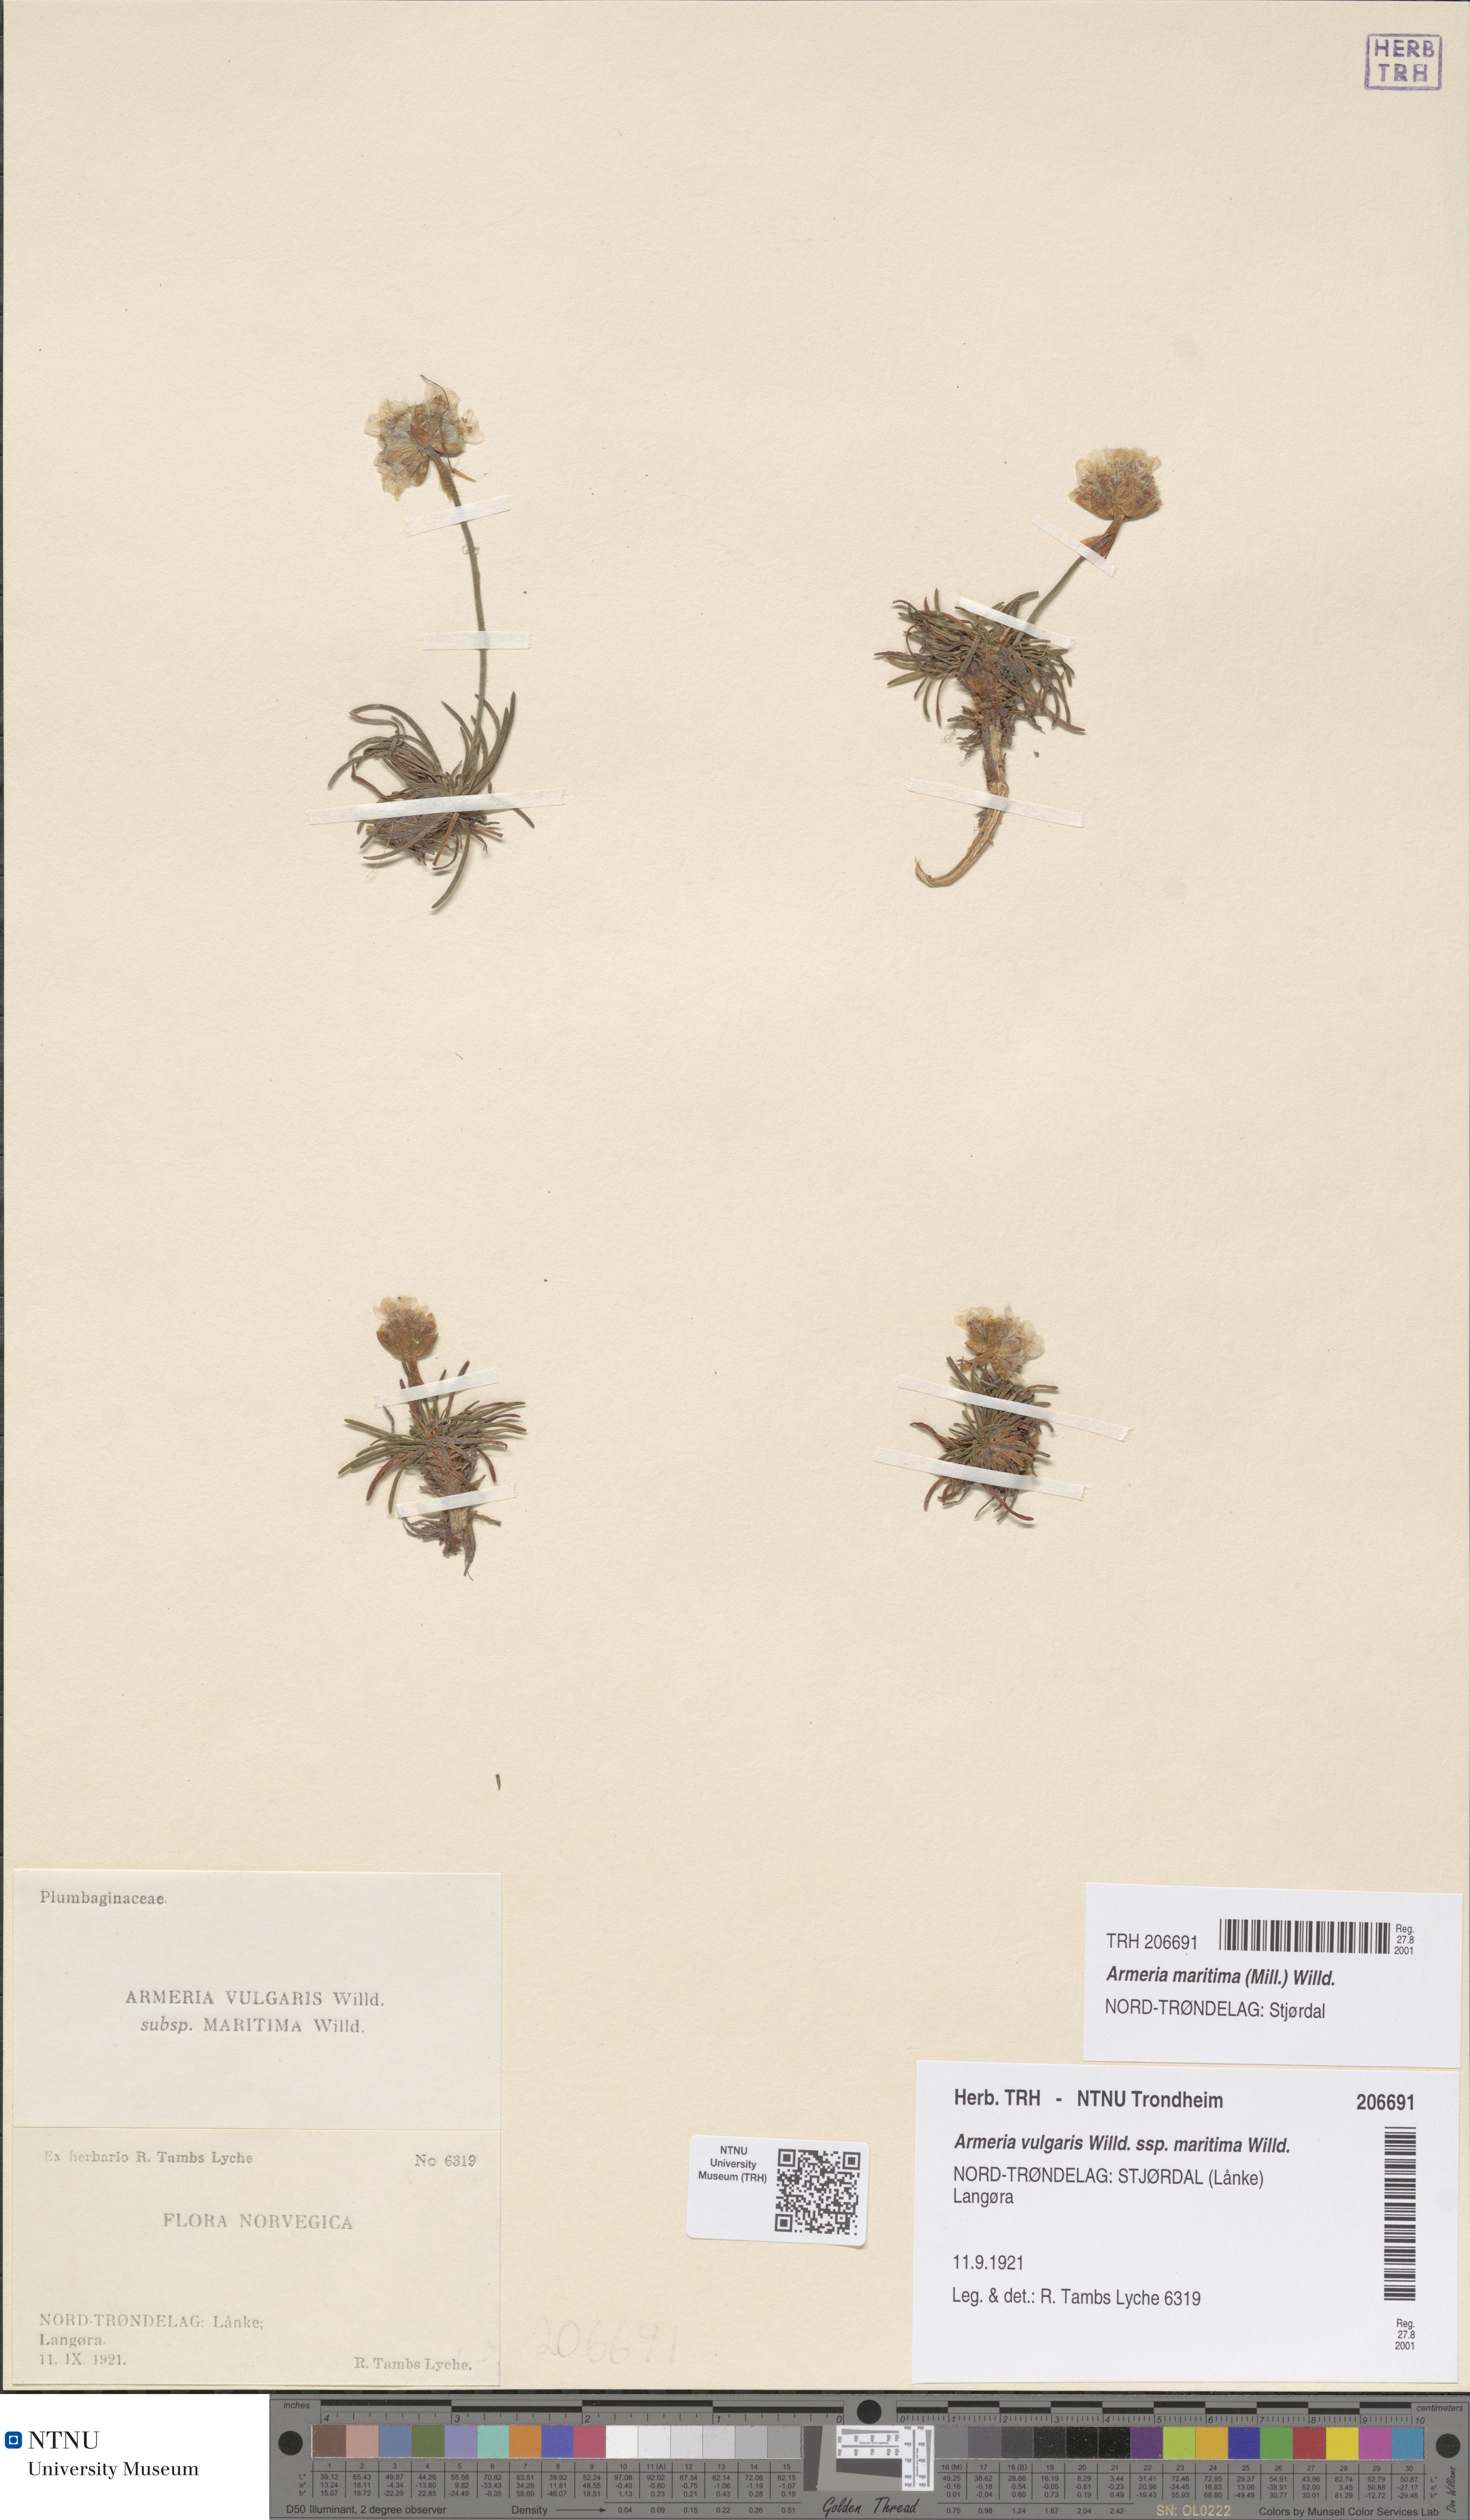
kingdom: Plantae
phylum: Tracheophyta
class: Magnoliopsida
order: Caryophyllales
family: Plumbaginaceae
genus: Armeria
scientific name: Armeria maritima
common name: Thrift
